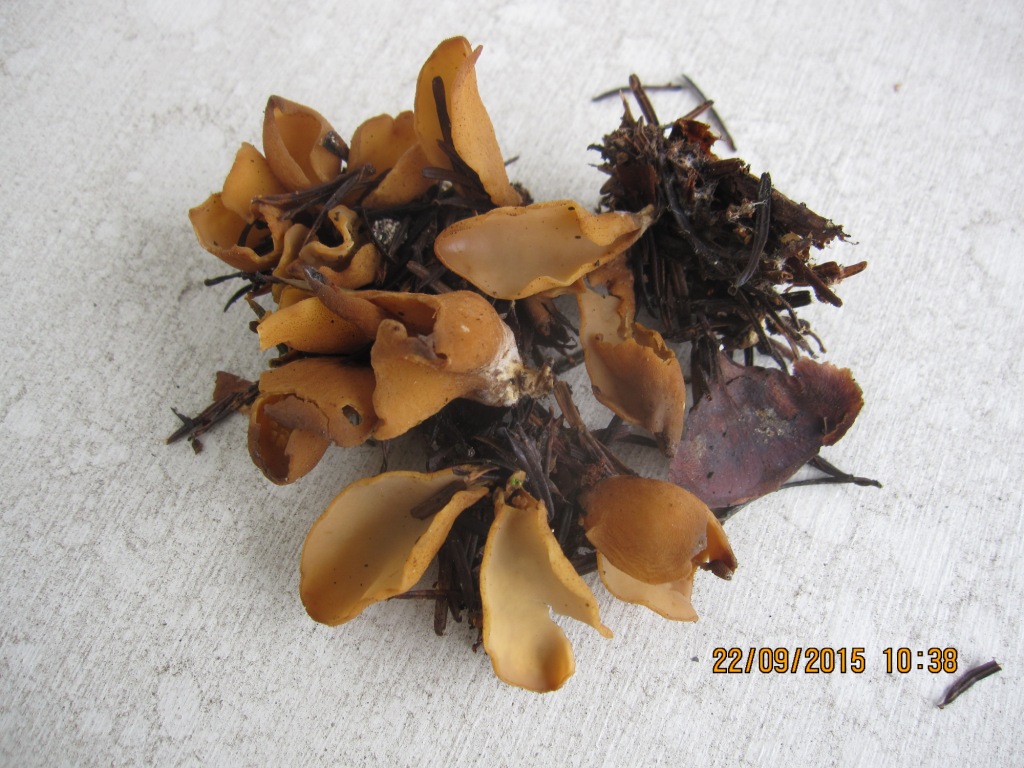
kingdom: Fungi
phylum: Ascomycota
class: Pezizomycetes
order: Pezizales
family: Otideaceae
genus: Otidea
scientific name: Otidea nannfeldtii
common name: jolle-ørebæger
